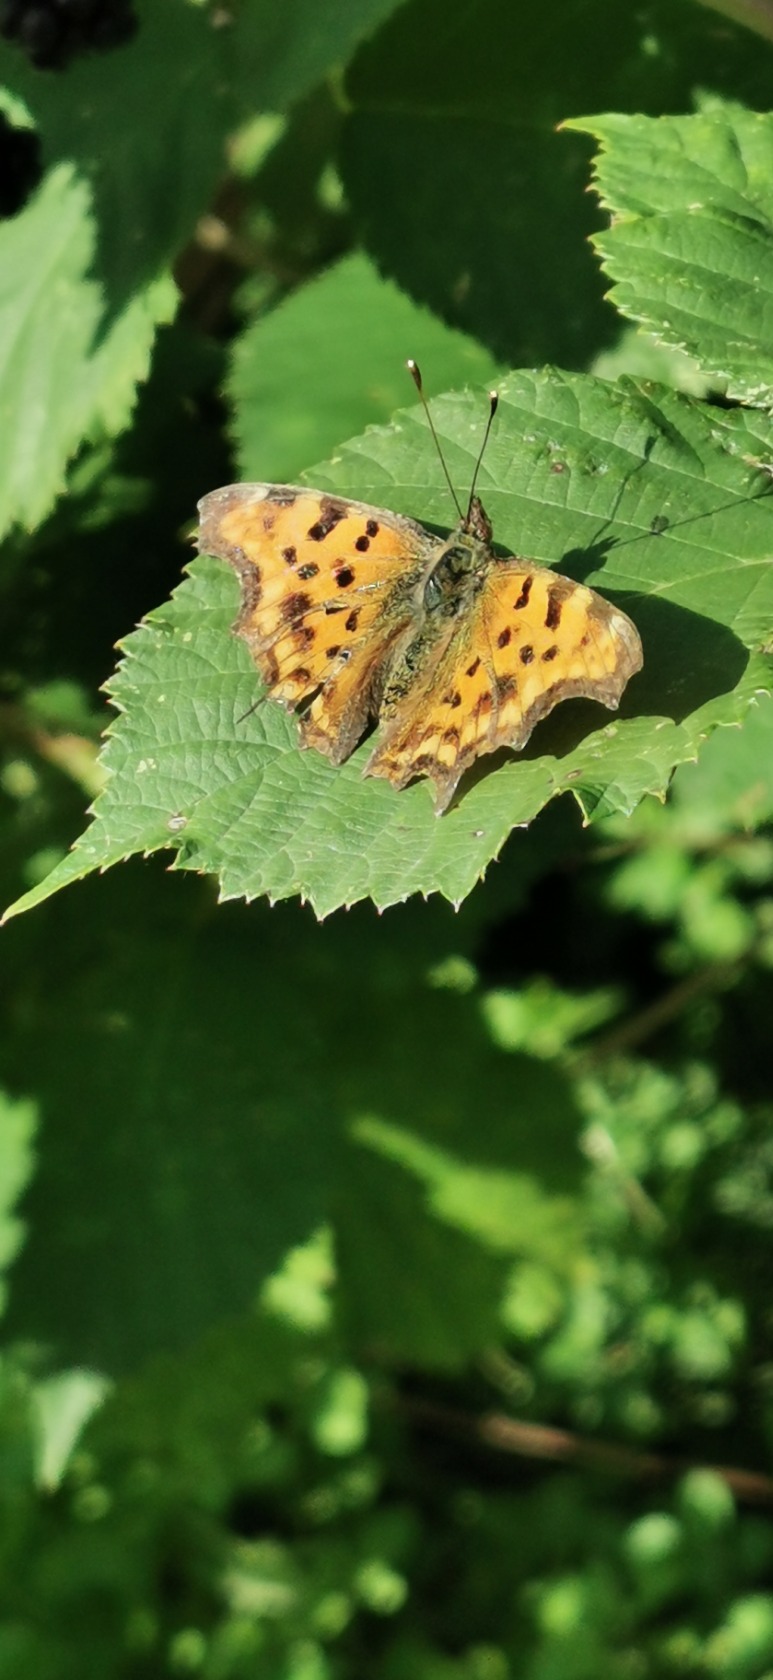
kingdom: Animalia
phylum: Arthropoda
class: Insecta
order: Lepidoptera
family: Nymphalidae
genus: Polygonia
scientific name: Polygonia c-album
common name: Det hvide C
